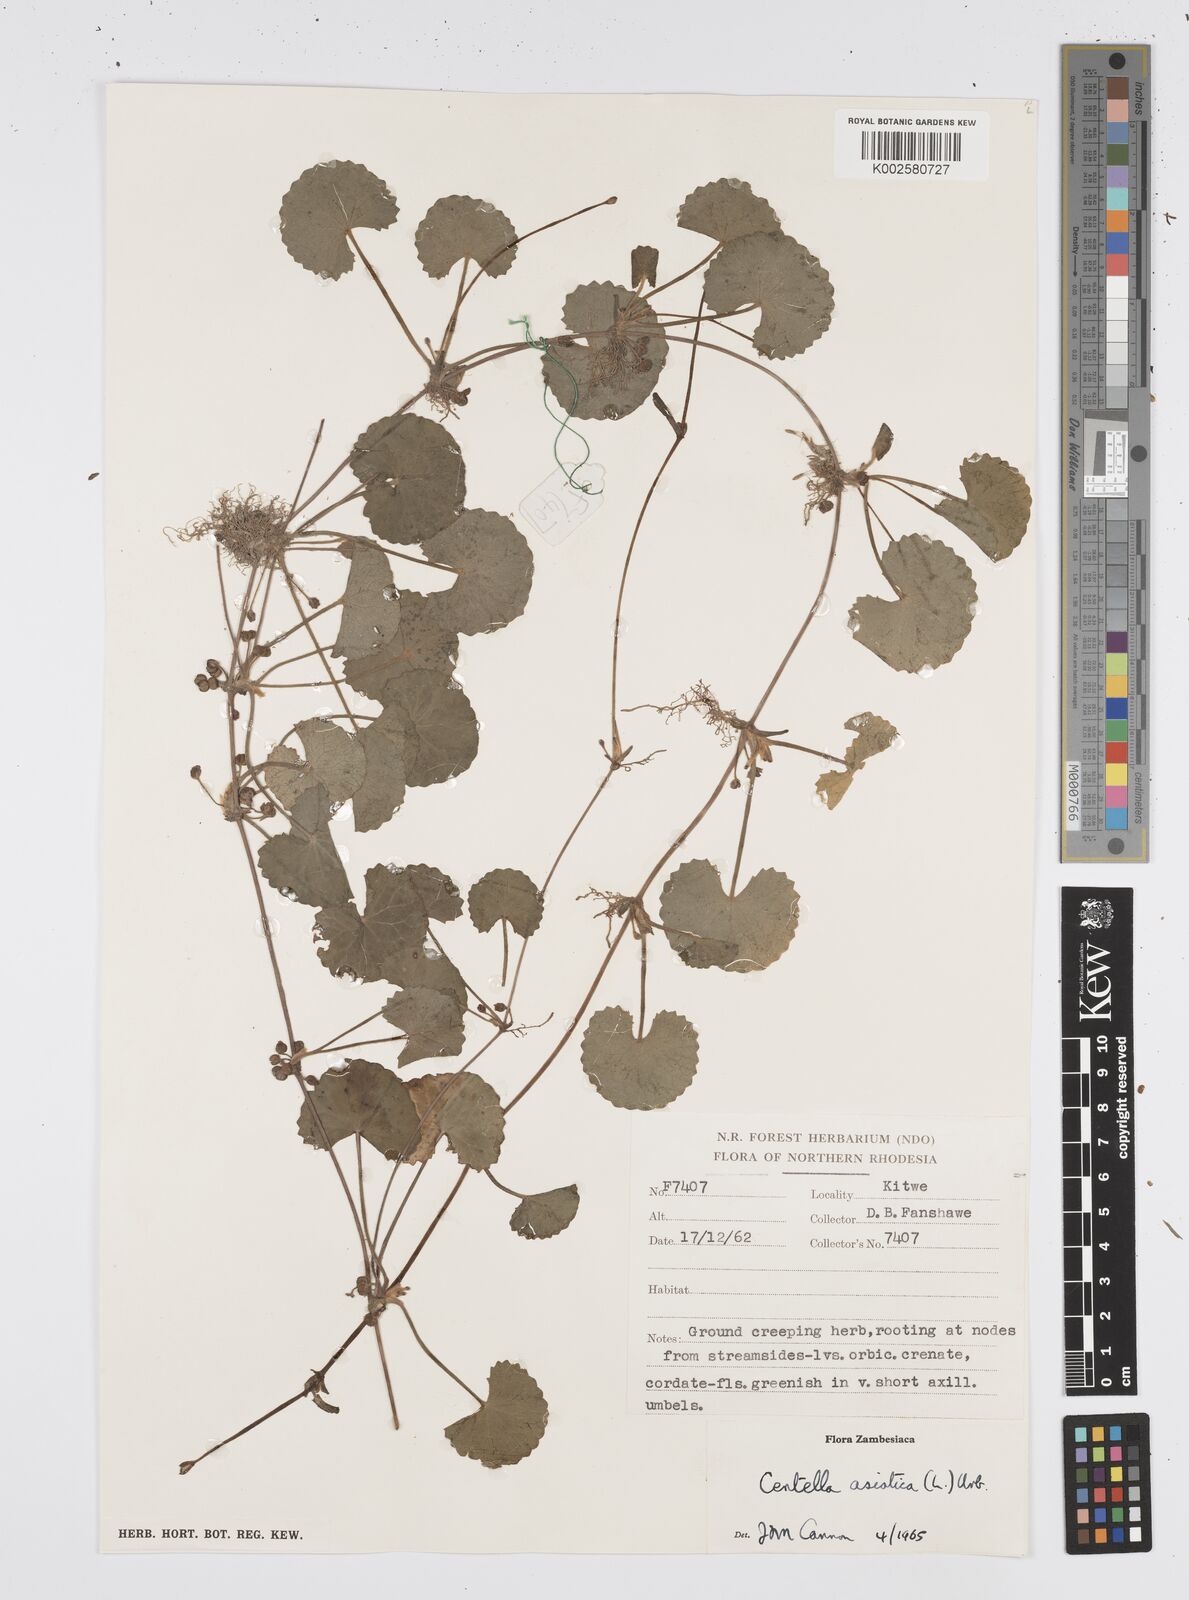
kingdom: Plantae
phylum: Tracheophyta
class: Magnoliopsida
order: Apiales
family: Apiaceae
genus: Centella
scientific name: Centella asiatica
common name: Spadeleaf
